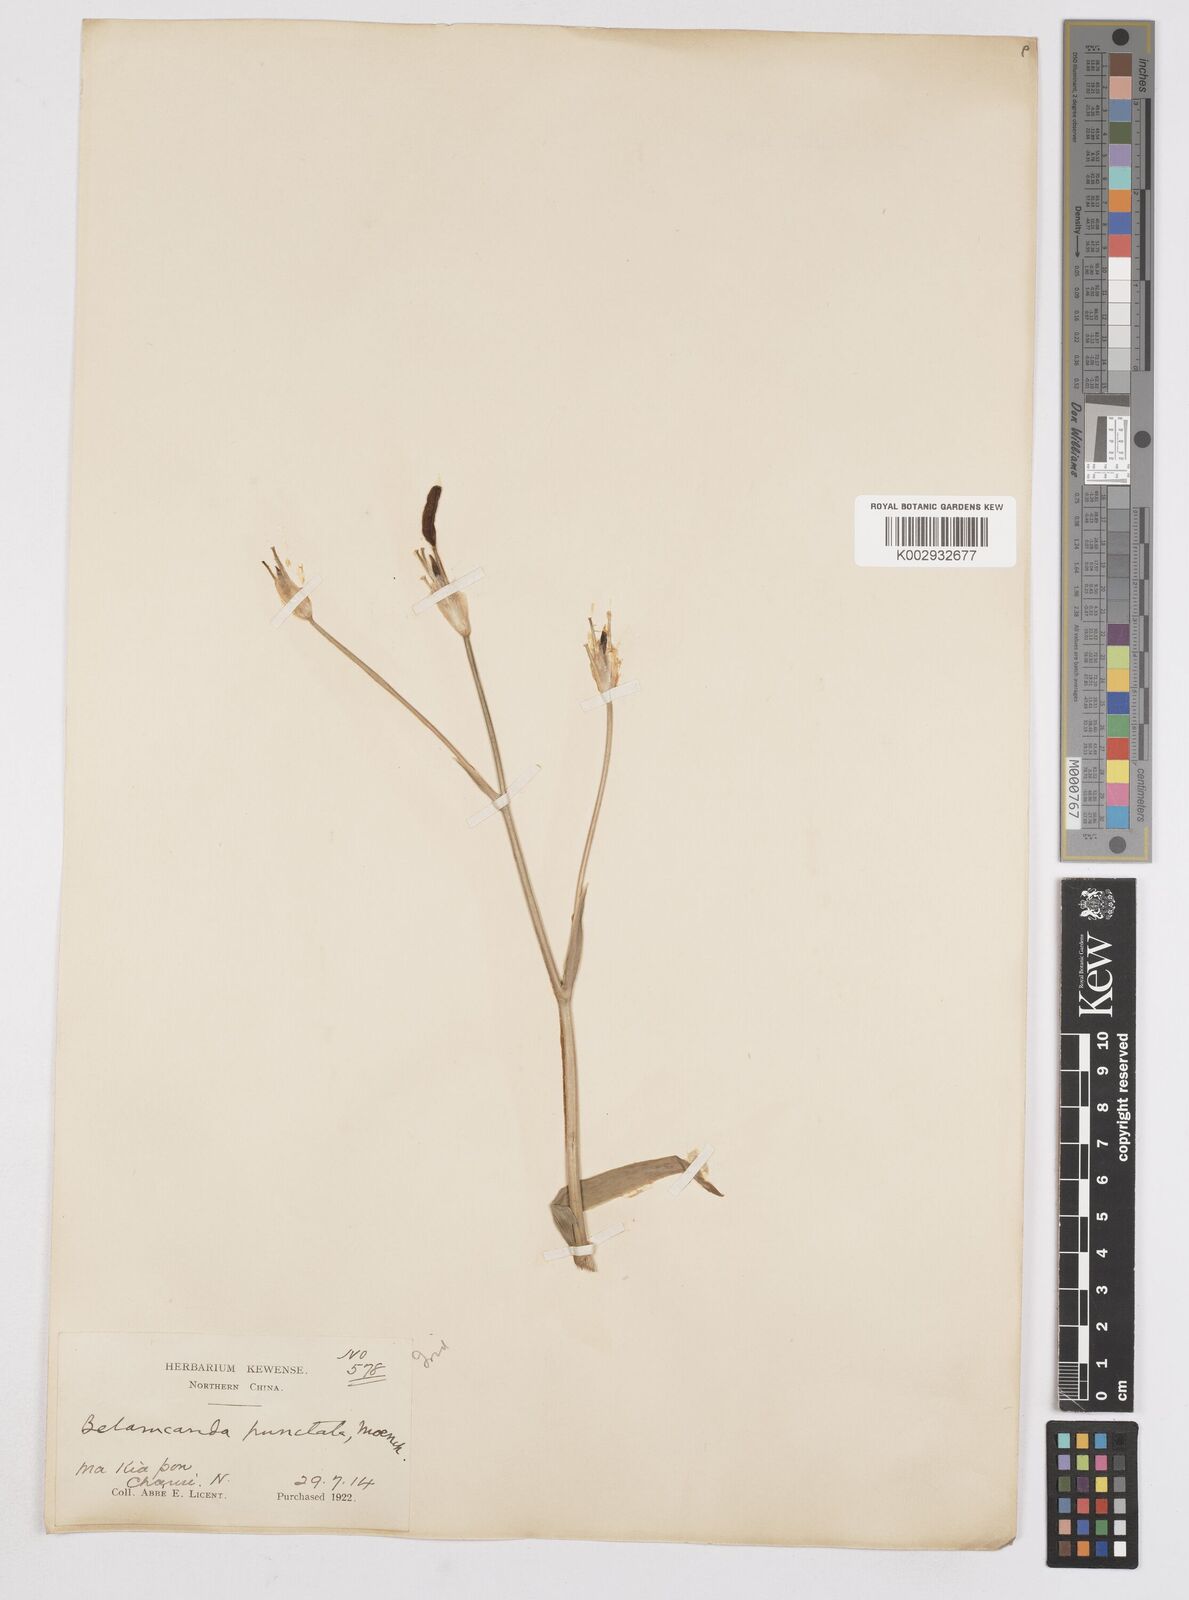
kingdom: Plantae
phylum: Tracheophyta
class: Liliopsida
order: Asparagales
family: Iridaceae
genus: Iris
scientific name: Iris
